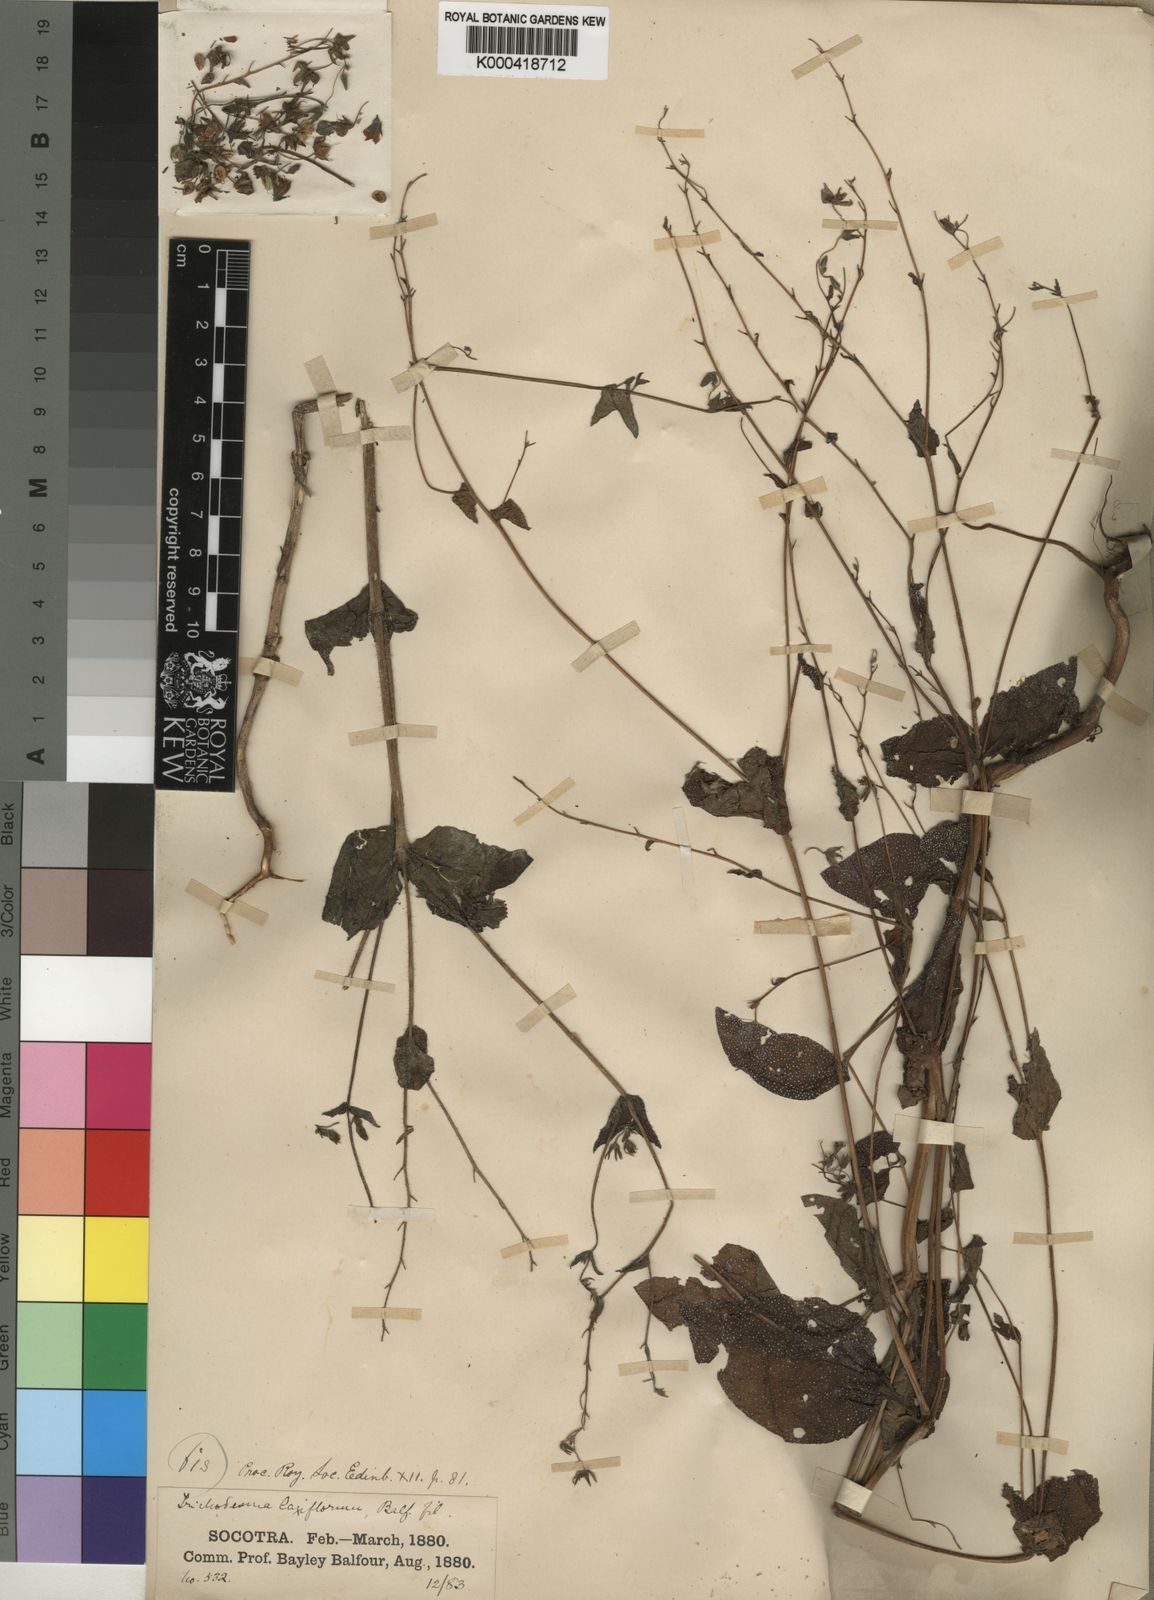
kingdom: Plantae
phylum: Tracheophyta
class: Magnoliopsida
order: Boraginales
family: Boraginaceae
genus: Trichodesma
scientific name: Trichodesma laxiflorum
